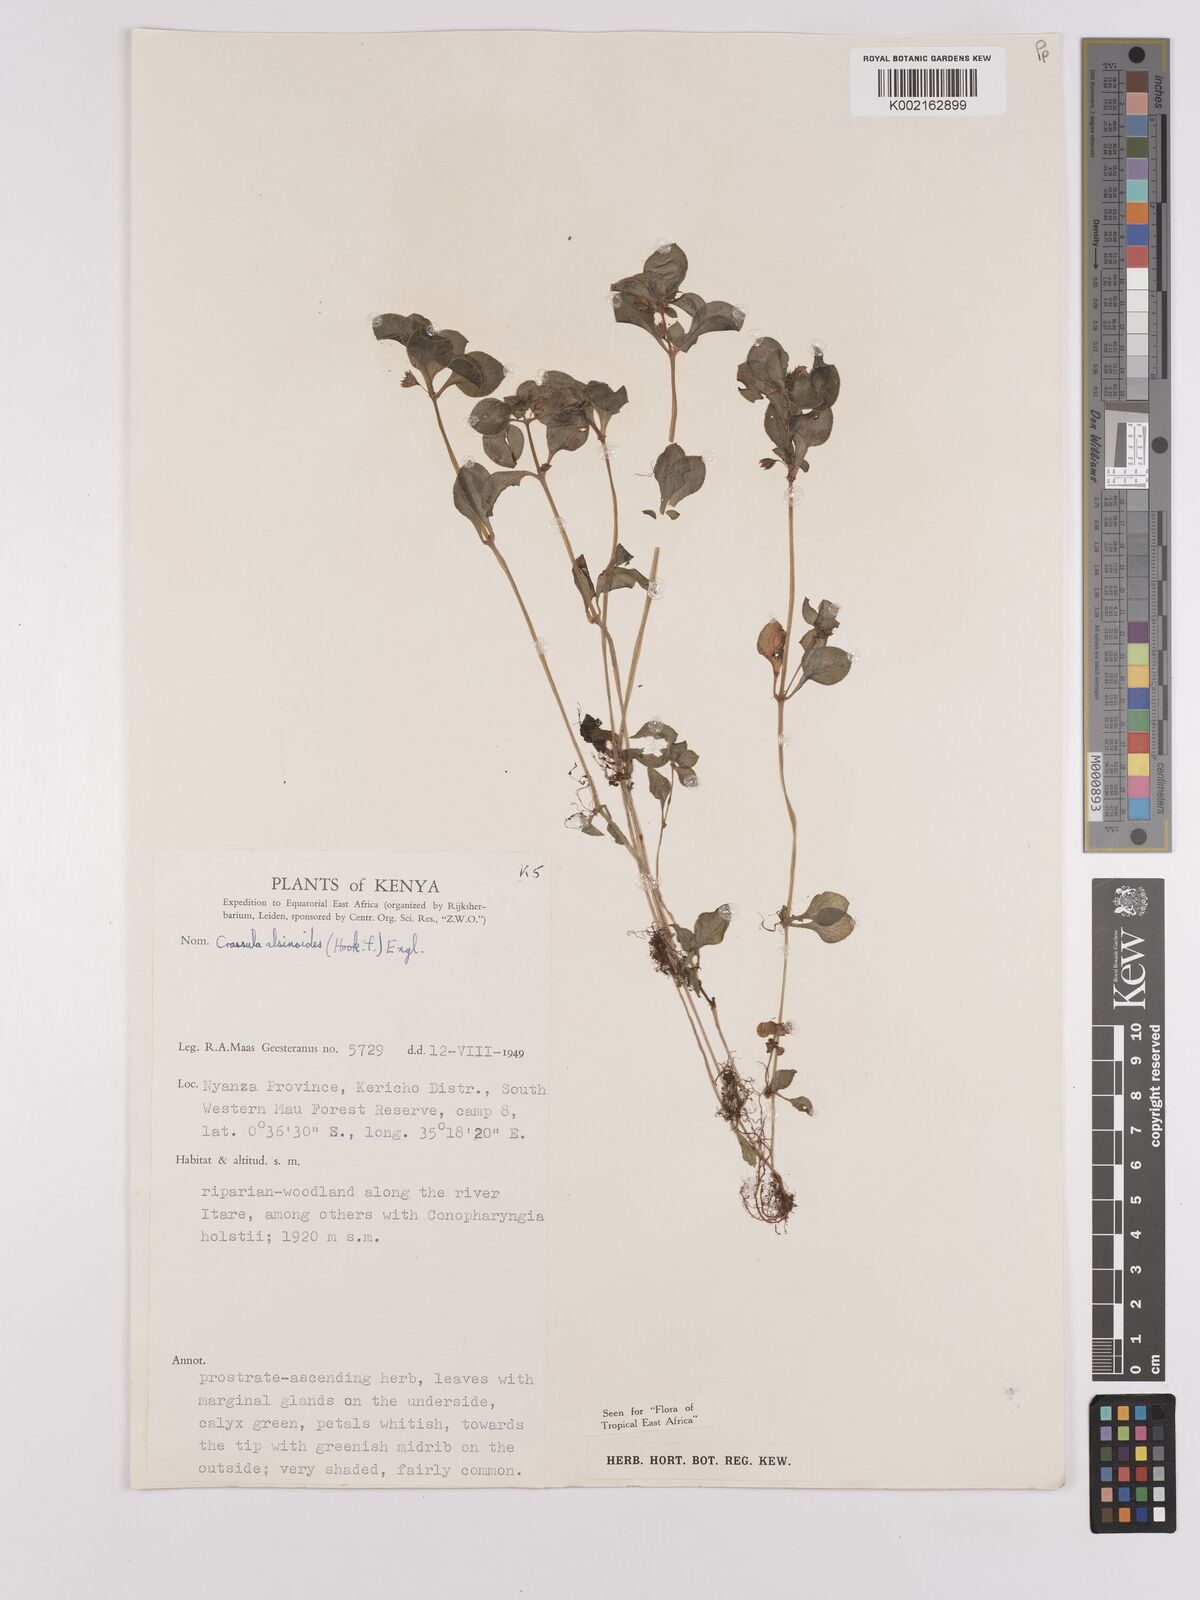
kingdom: Plantae
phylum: Tracheophyta
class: Magnoliopsida
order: Saxifragales
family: Crassulaceae
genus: Crassula
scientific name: Crassula alsinoides
